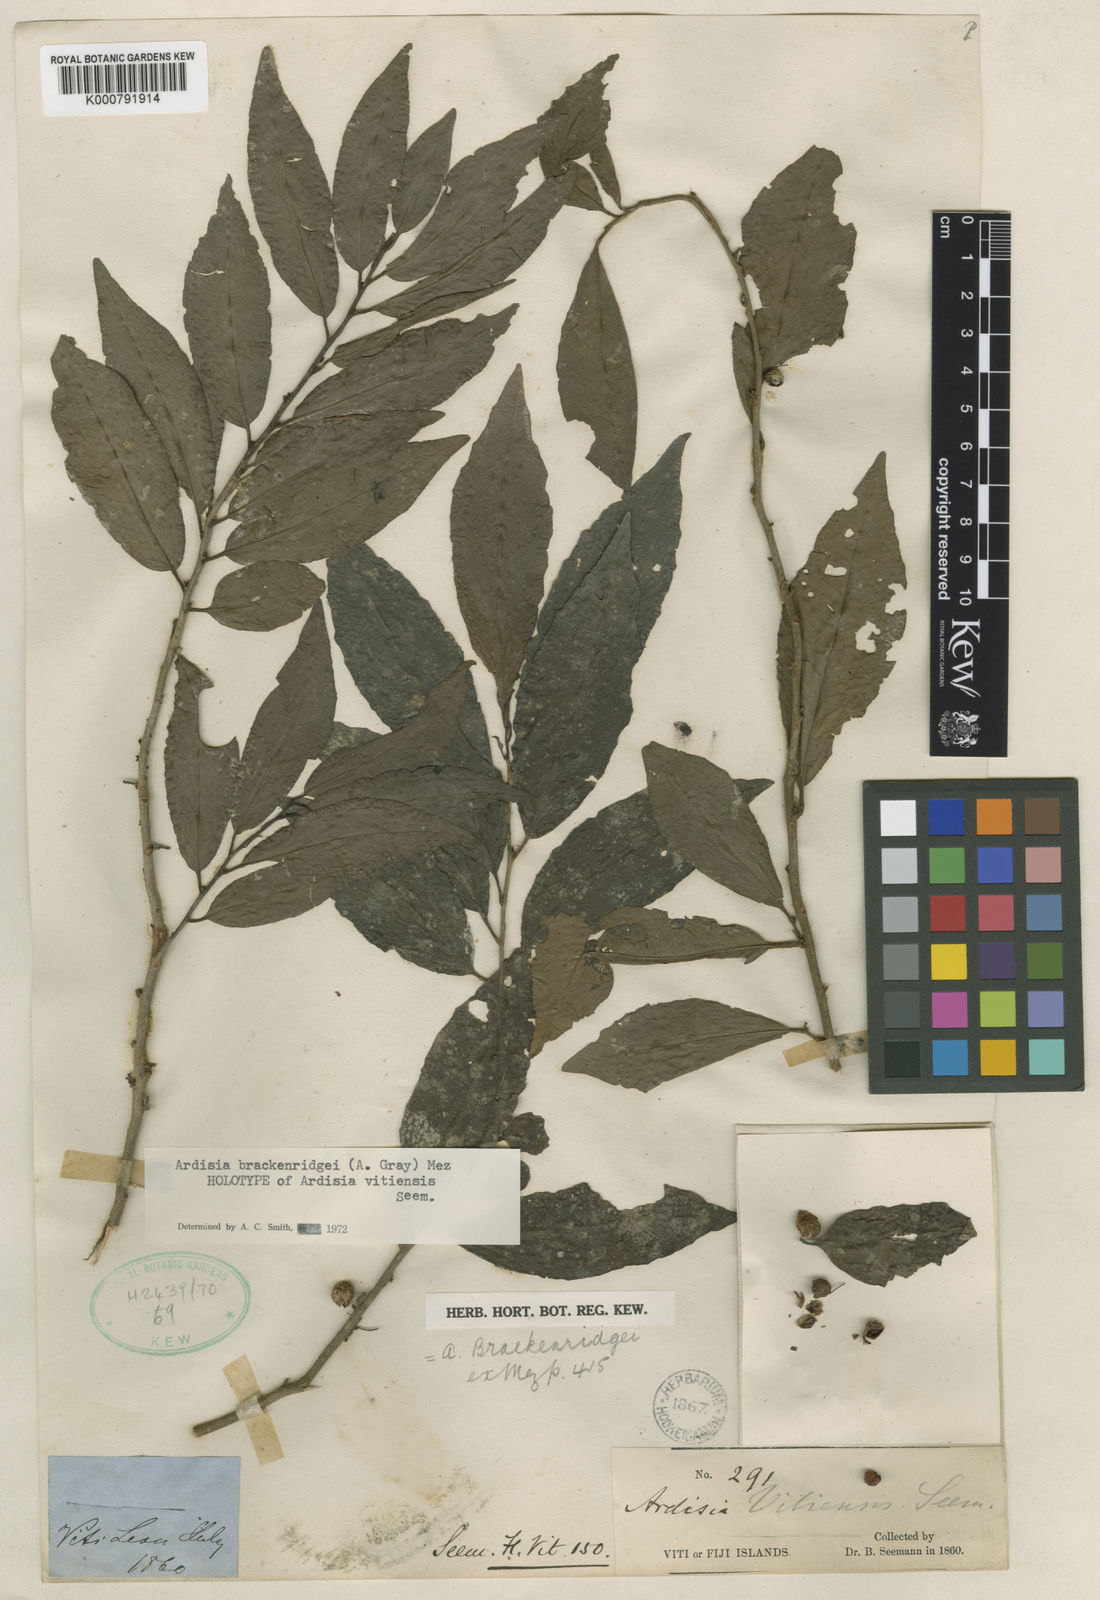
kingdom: Plantae
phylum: Tracheophyta
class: Magnoliopsida
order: Ericales
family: Primulaceae
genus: Ardisia
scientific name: Ardisia brackenridgei
